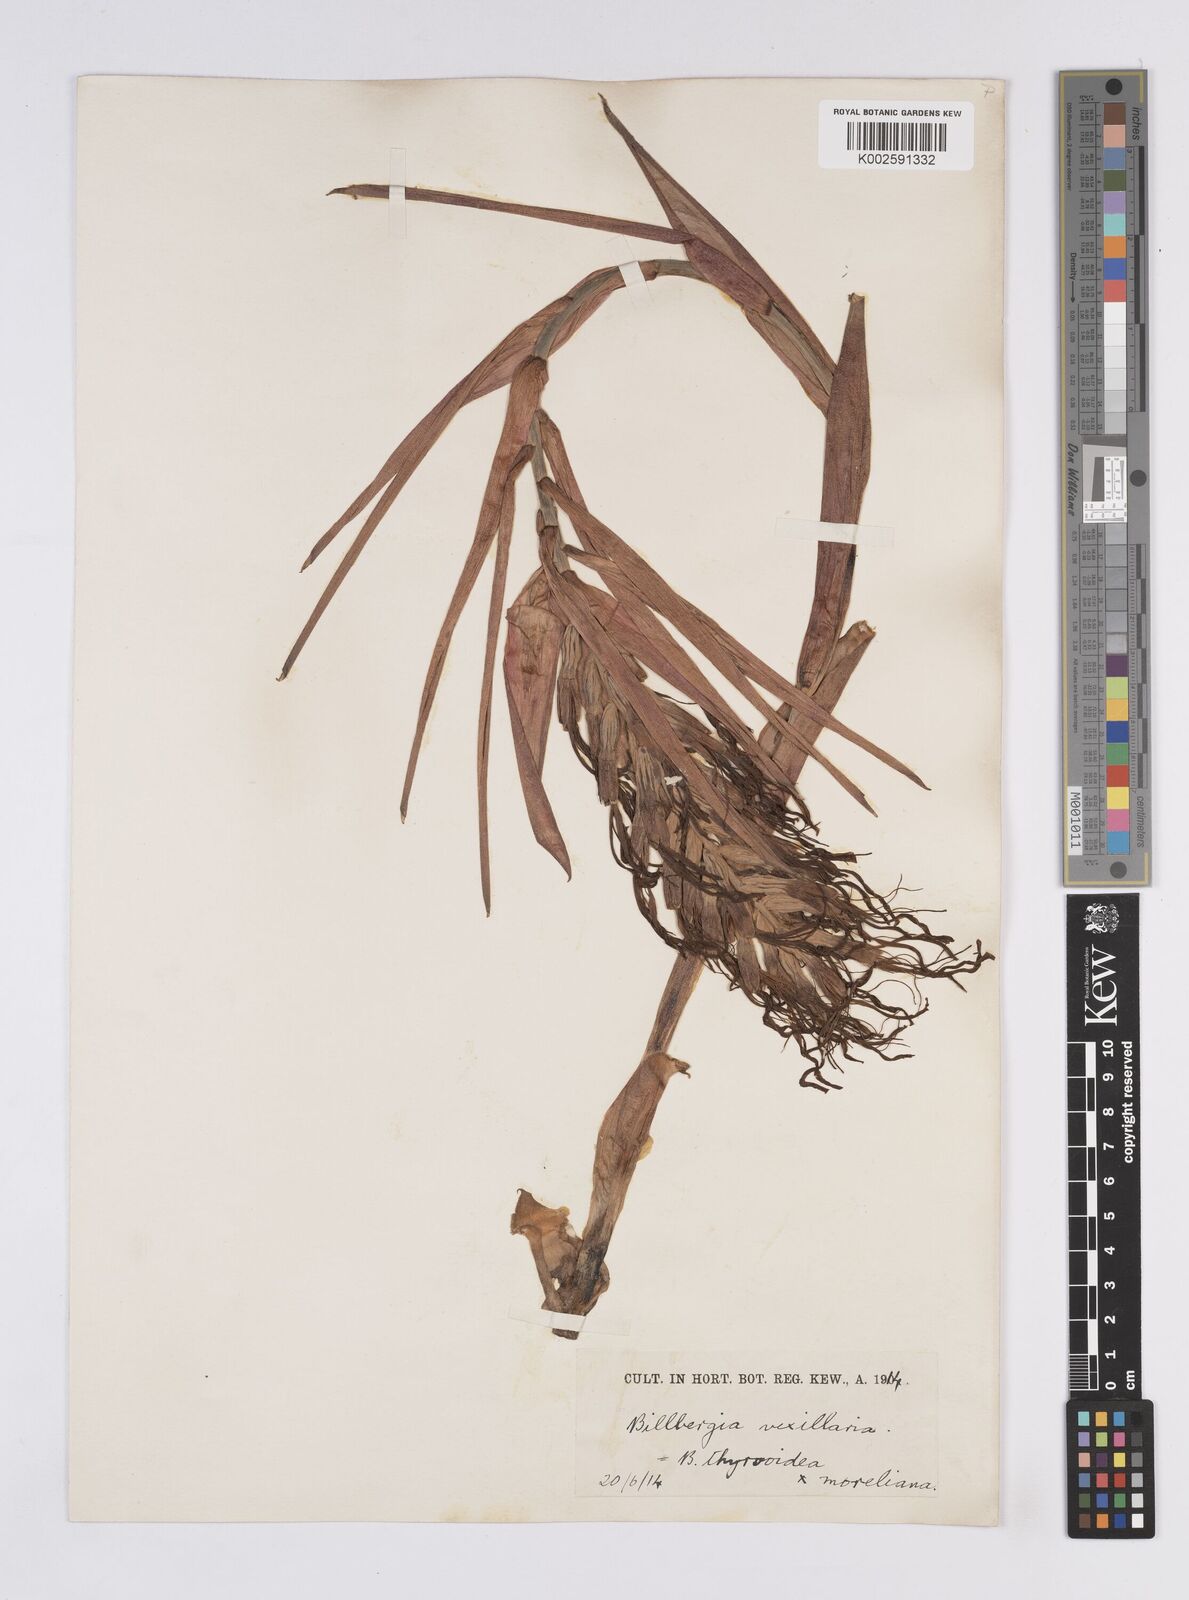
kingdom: Plantae
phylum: Tracheophyta
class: Liliopsida
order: Poales
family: Bromeliaceae
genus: Billbergia
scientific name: Billbergia jenischiana
